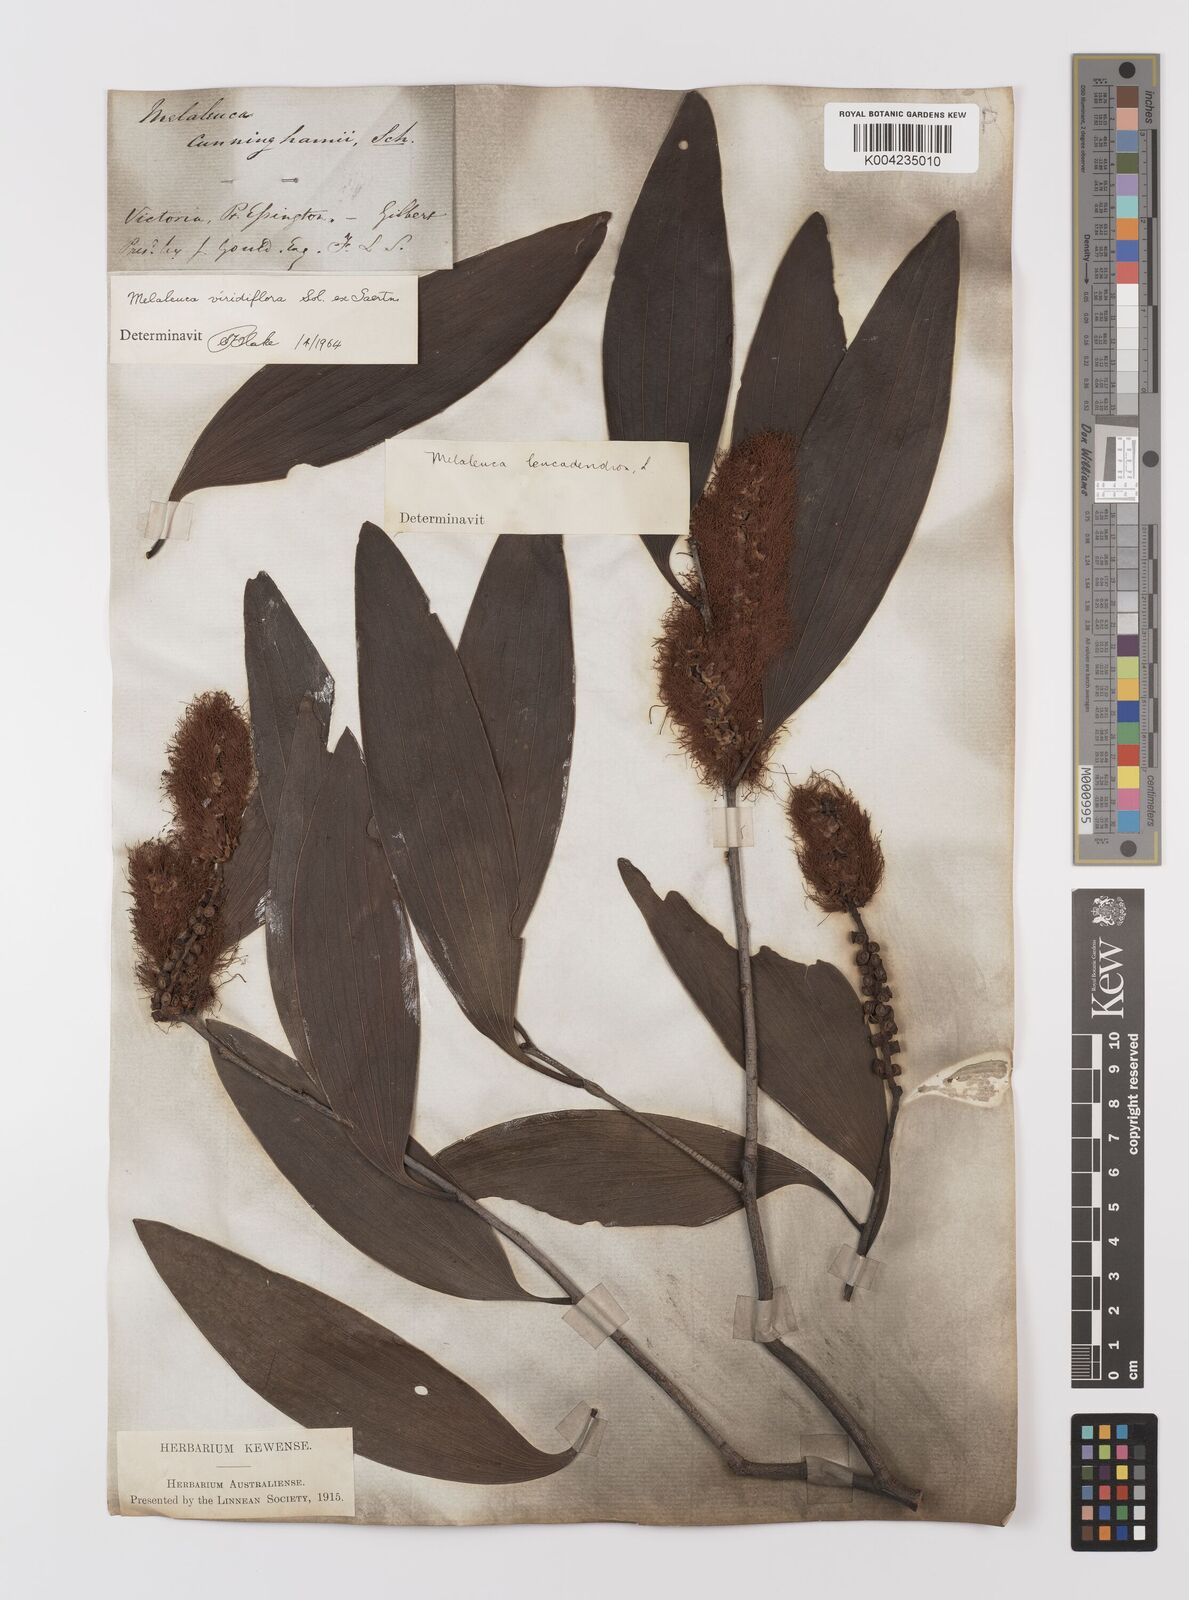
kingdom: Plantae
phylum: Tracheophyta
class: Magnoliopsida
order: Myrtales
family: Myrtaceae
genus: Melaleuca
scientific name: Melaleuca viridiflora
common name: Brown-leaved paperbark
